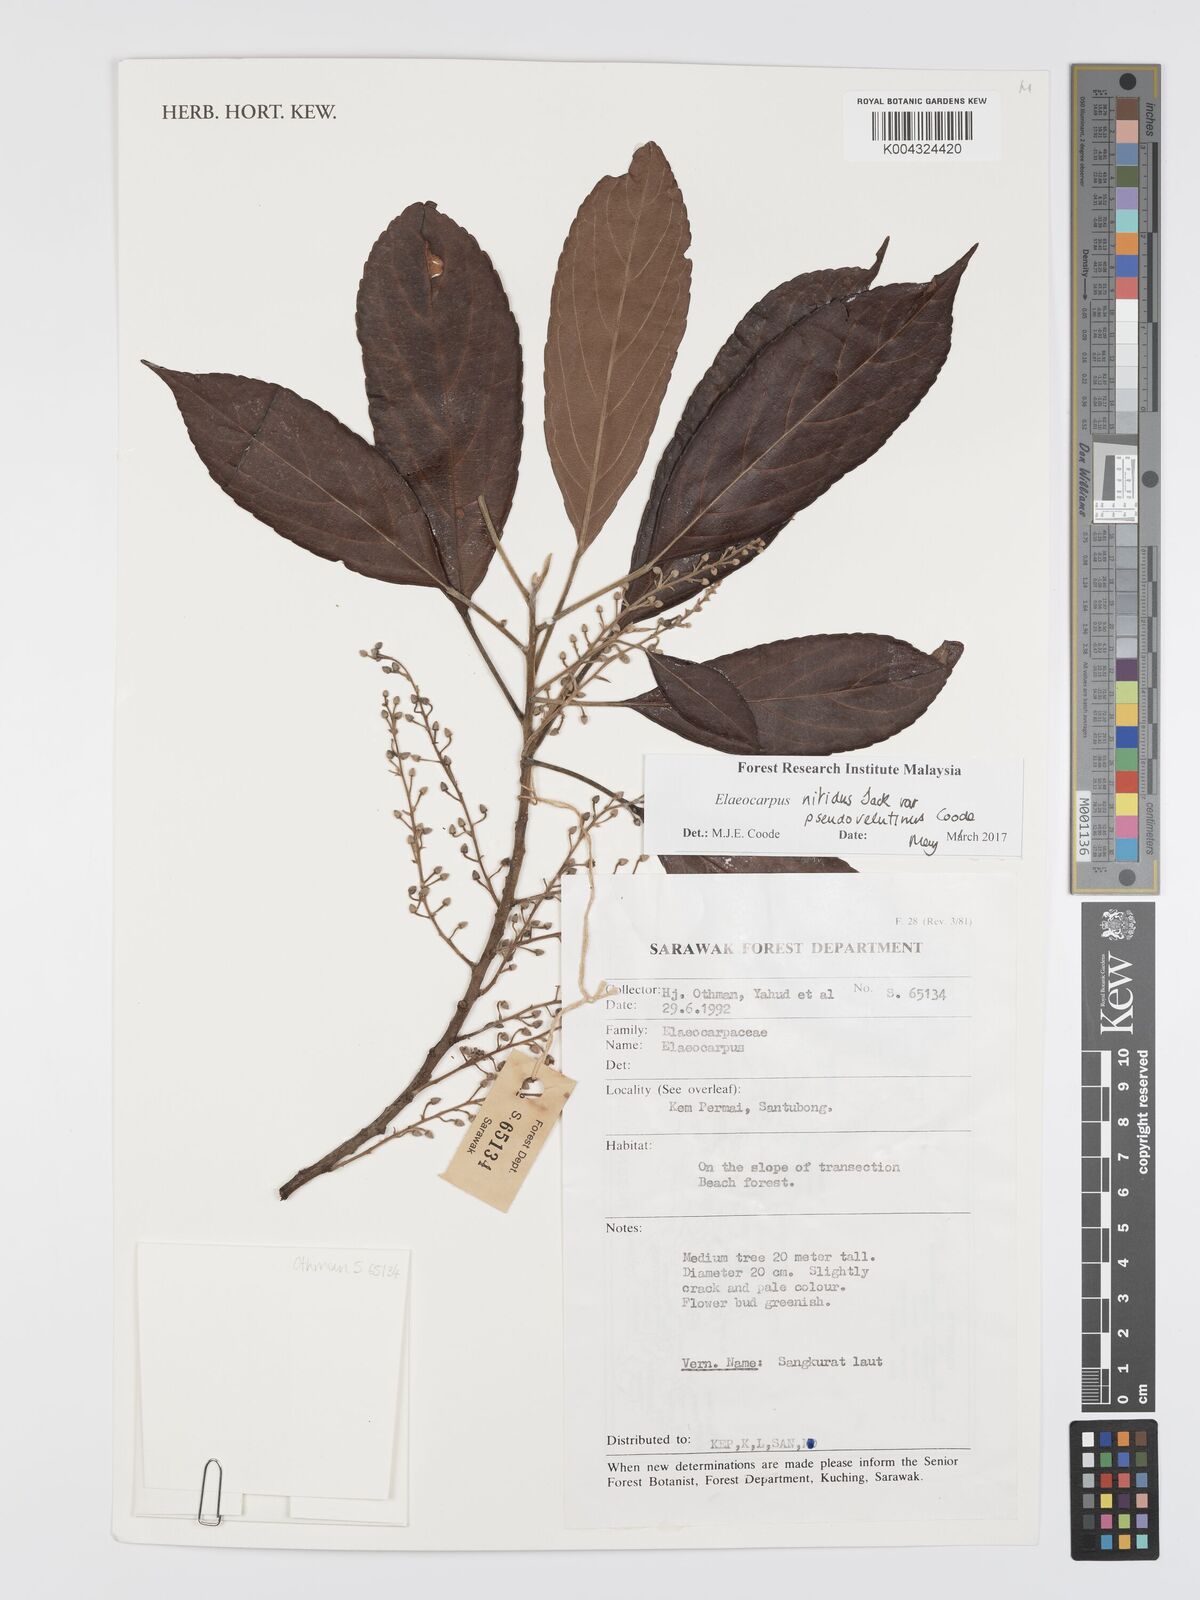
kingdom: Plantae
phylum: Tracheophyta
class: Magnoliopsida
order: Oxalidales
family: Elaeocarpaceae
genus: Elaeocarpus
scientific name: Elaeocarpus nitidus
